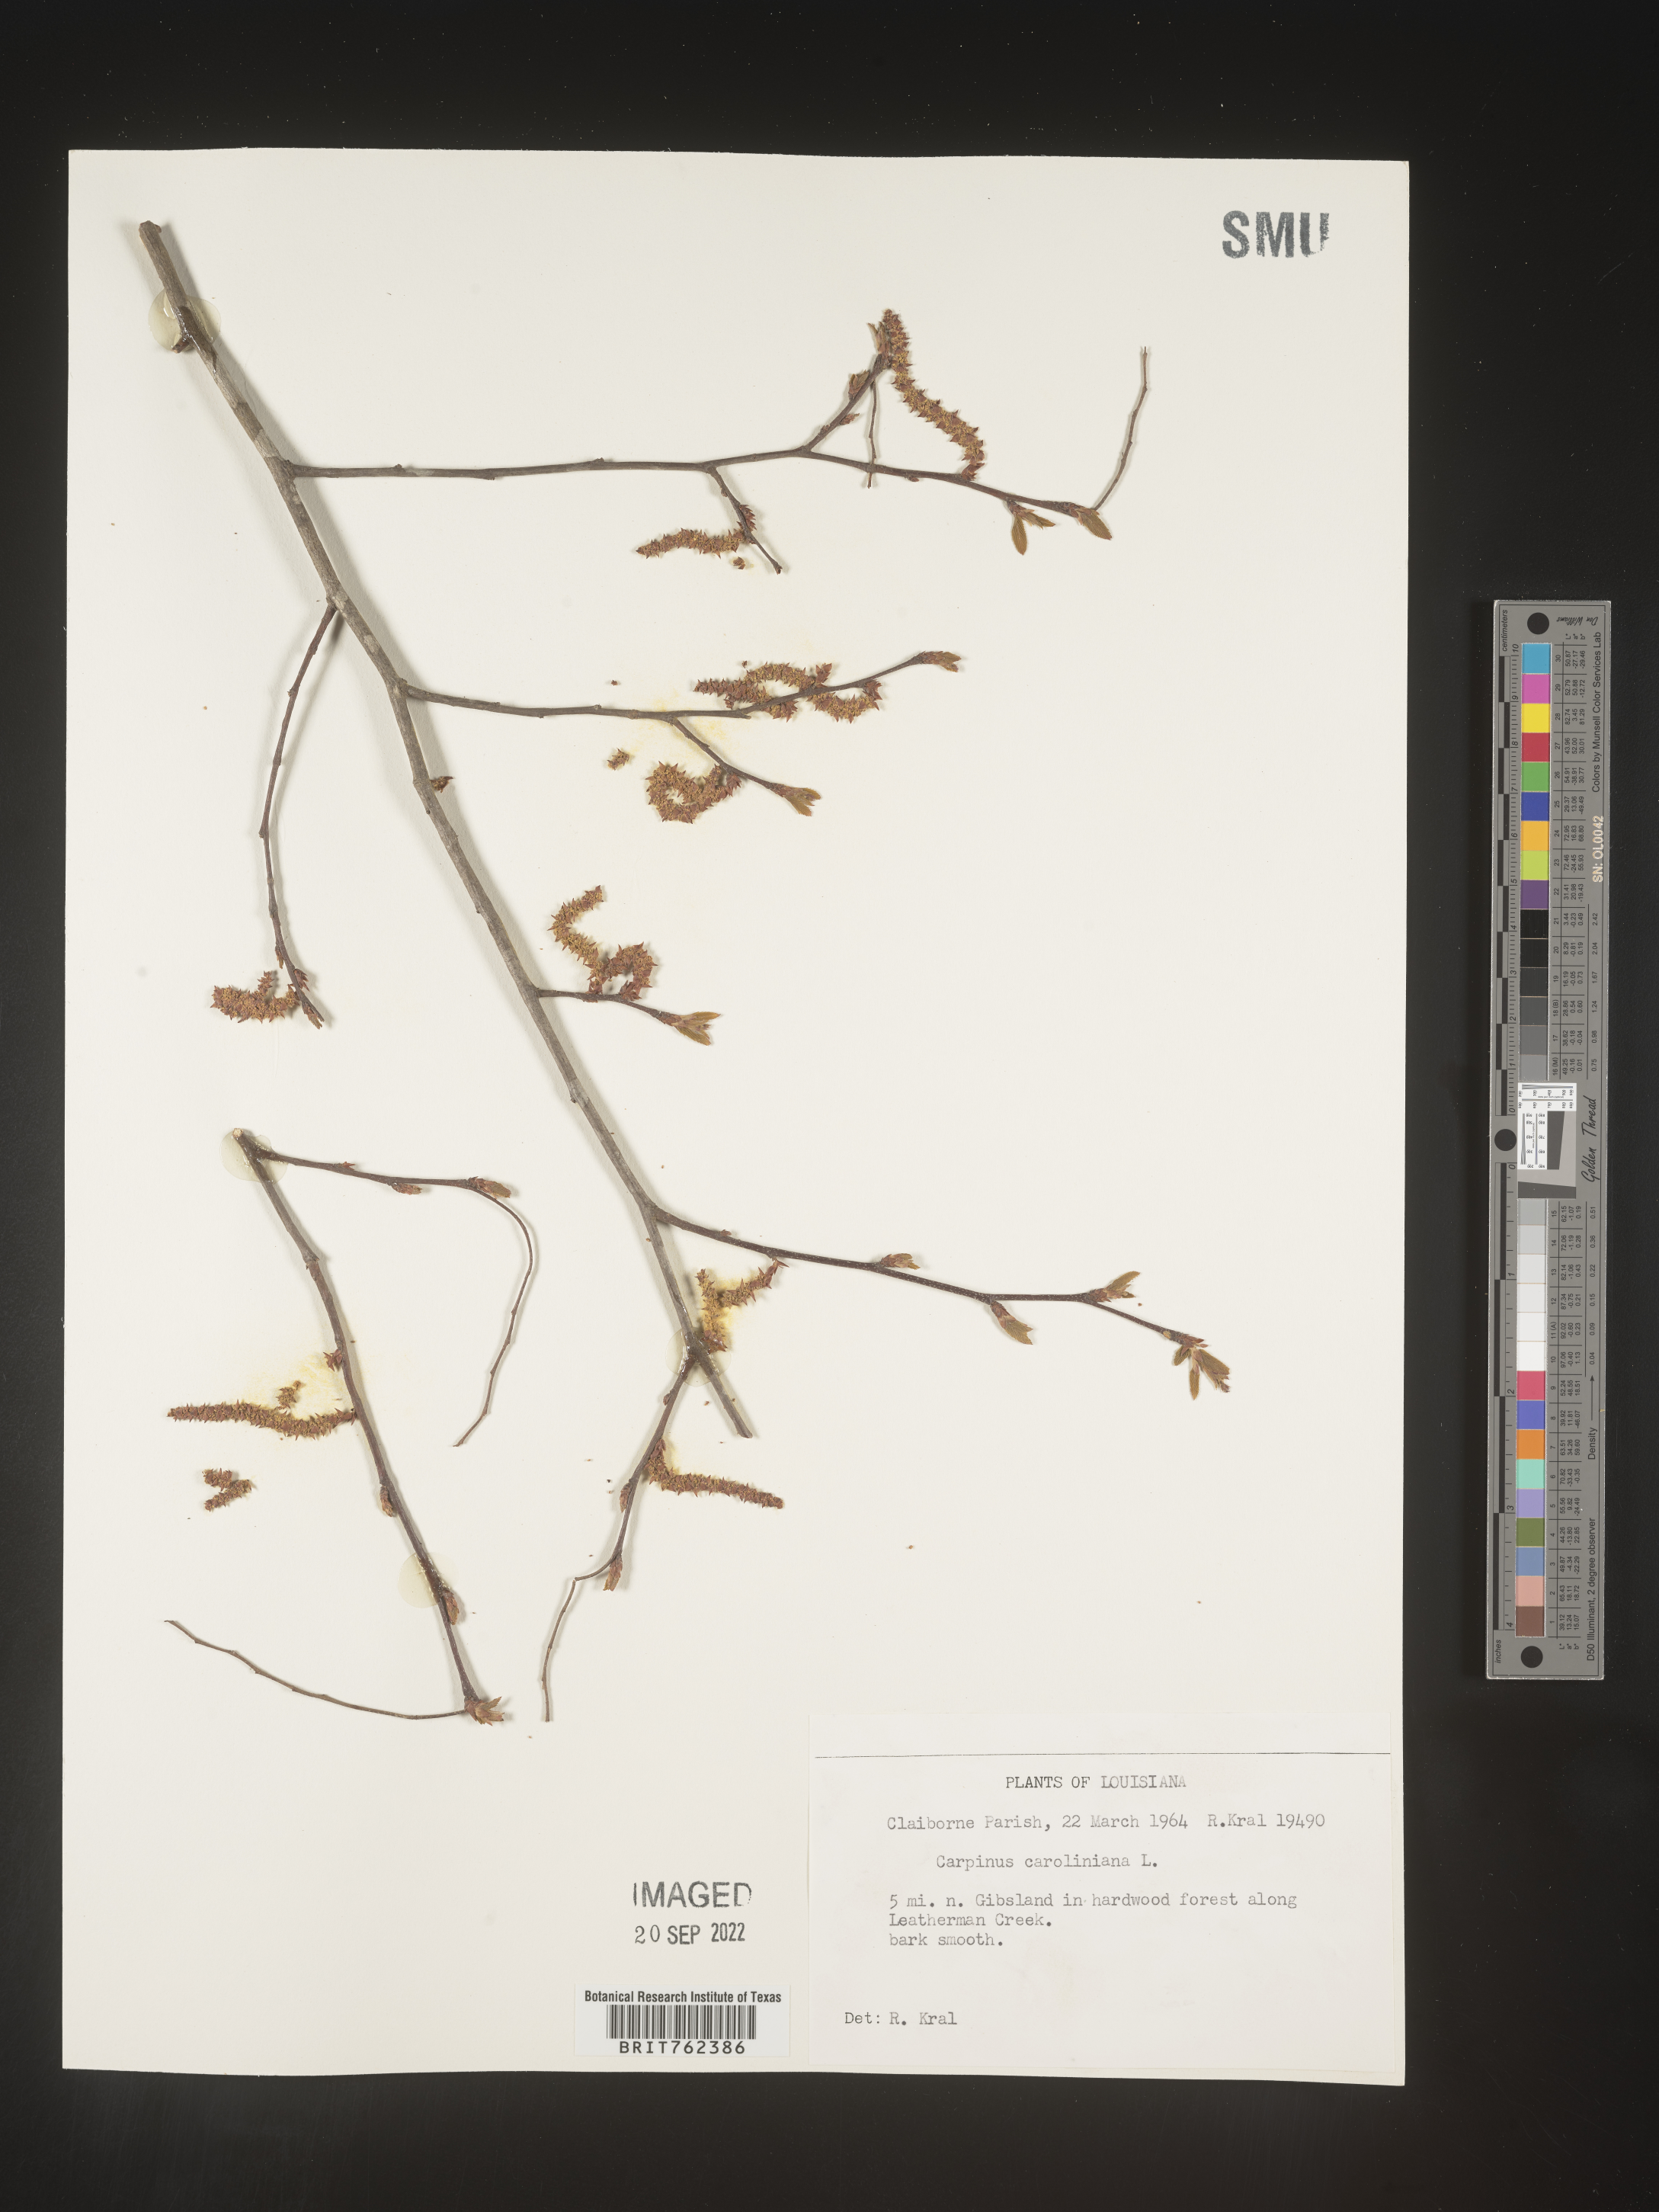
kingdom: Plantae
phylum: Tracheophyta
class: Magnoliopsida
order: Fagales
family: Betulaceae
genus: Carpinus
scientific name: Carpinus caroliniana
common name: American hornbeam
